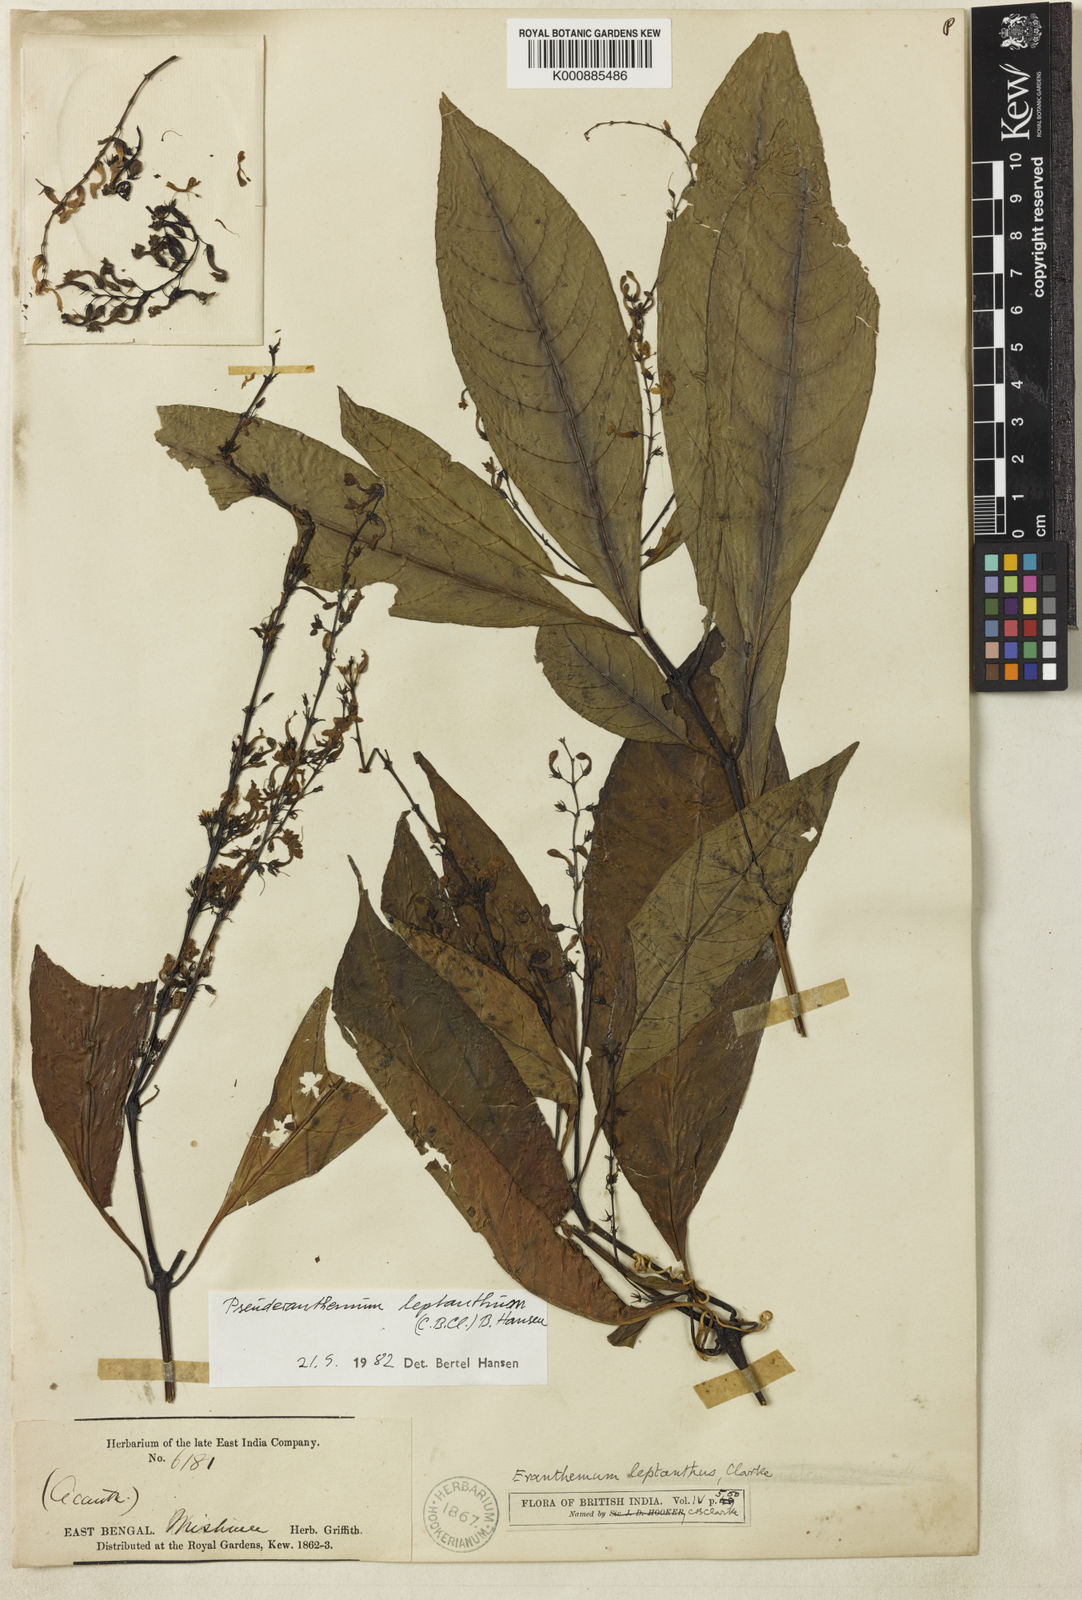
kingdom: Plantae
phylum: Tracheophyta
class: Magnoliopsida
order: Lamiales
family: Acanthaceae
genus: Pseuderanthemum
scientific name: Pseuderanthemum
